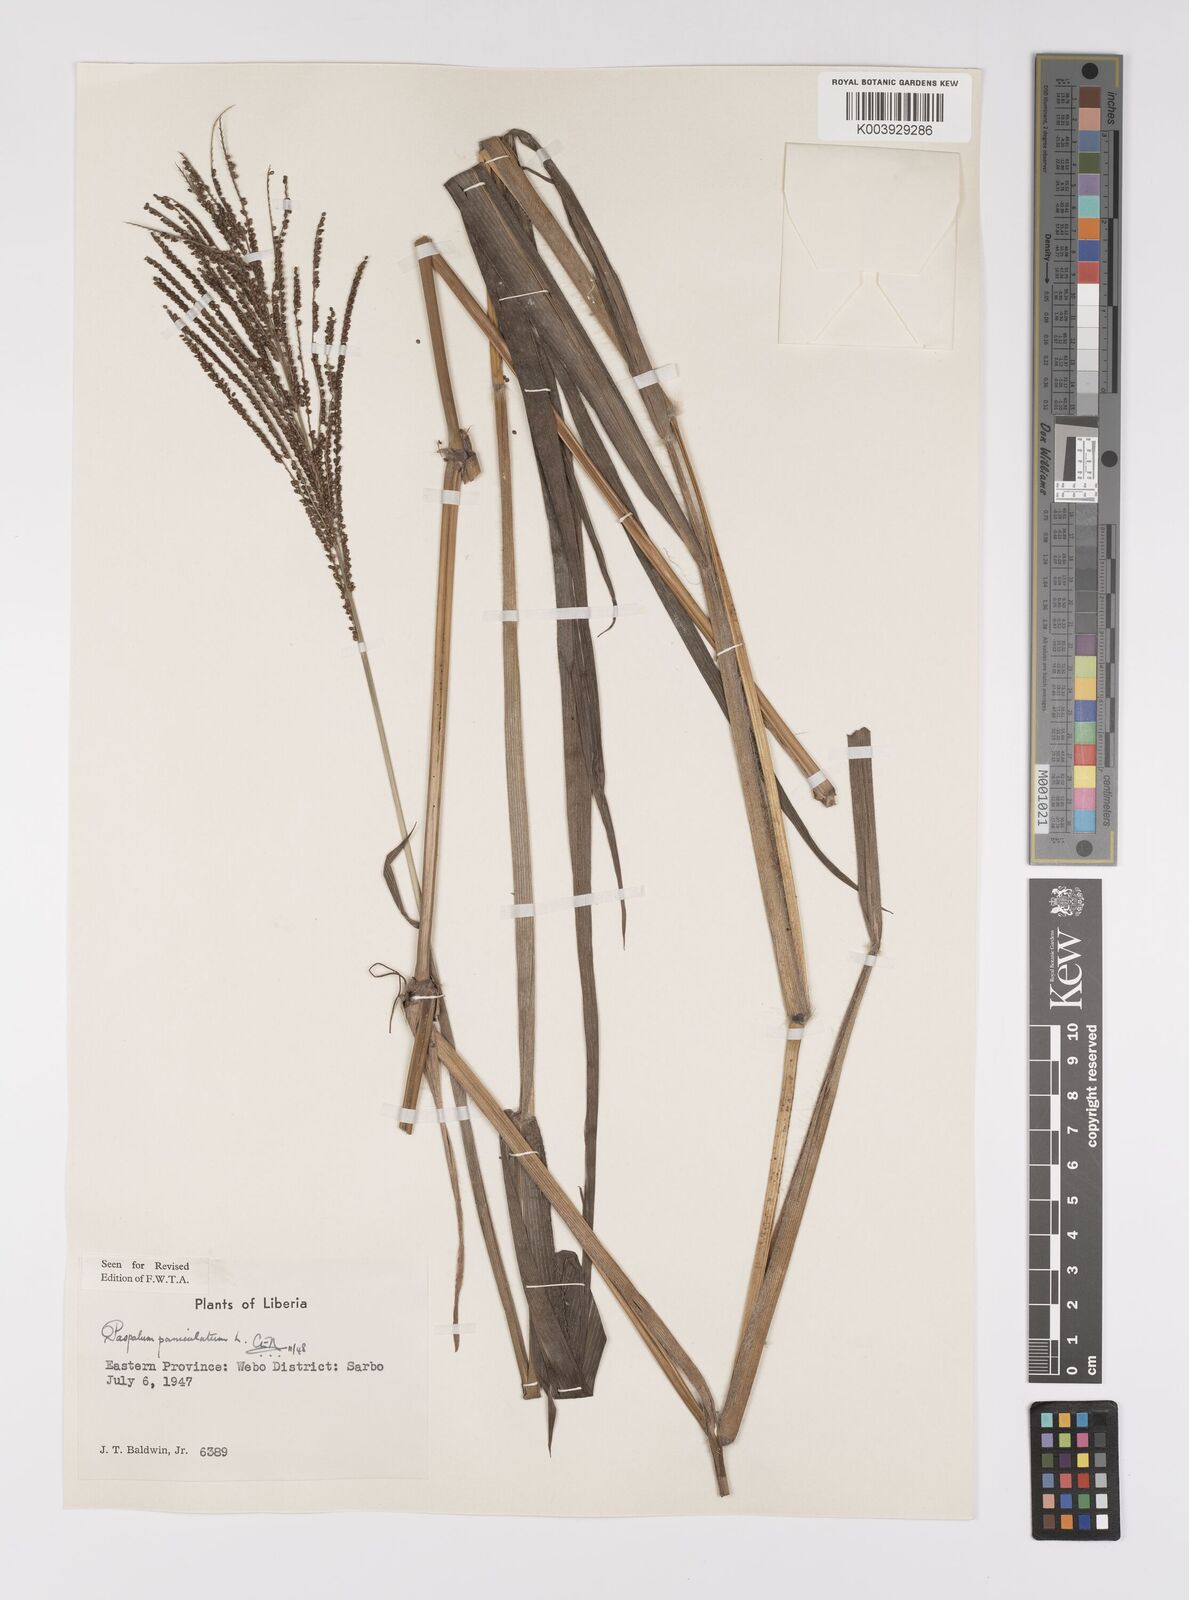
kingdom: Plantae
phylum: Tracheophyta
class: Liliopsida
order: Poales
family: Poaceae
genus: Paspalum
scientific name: Paspalum paniculatum
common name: Arrocillo
